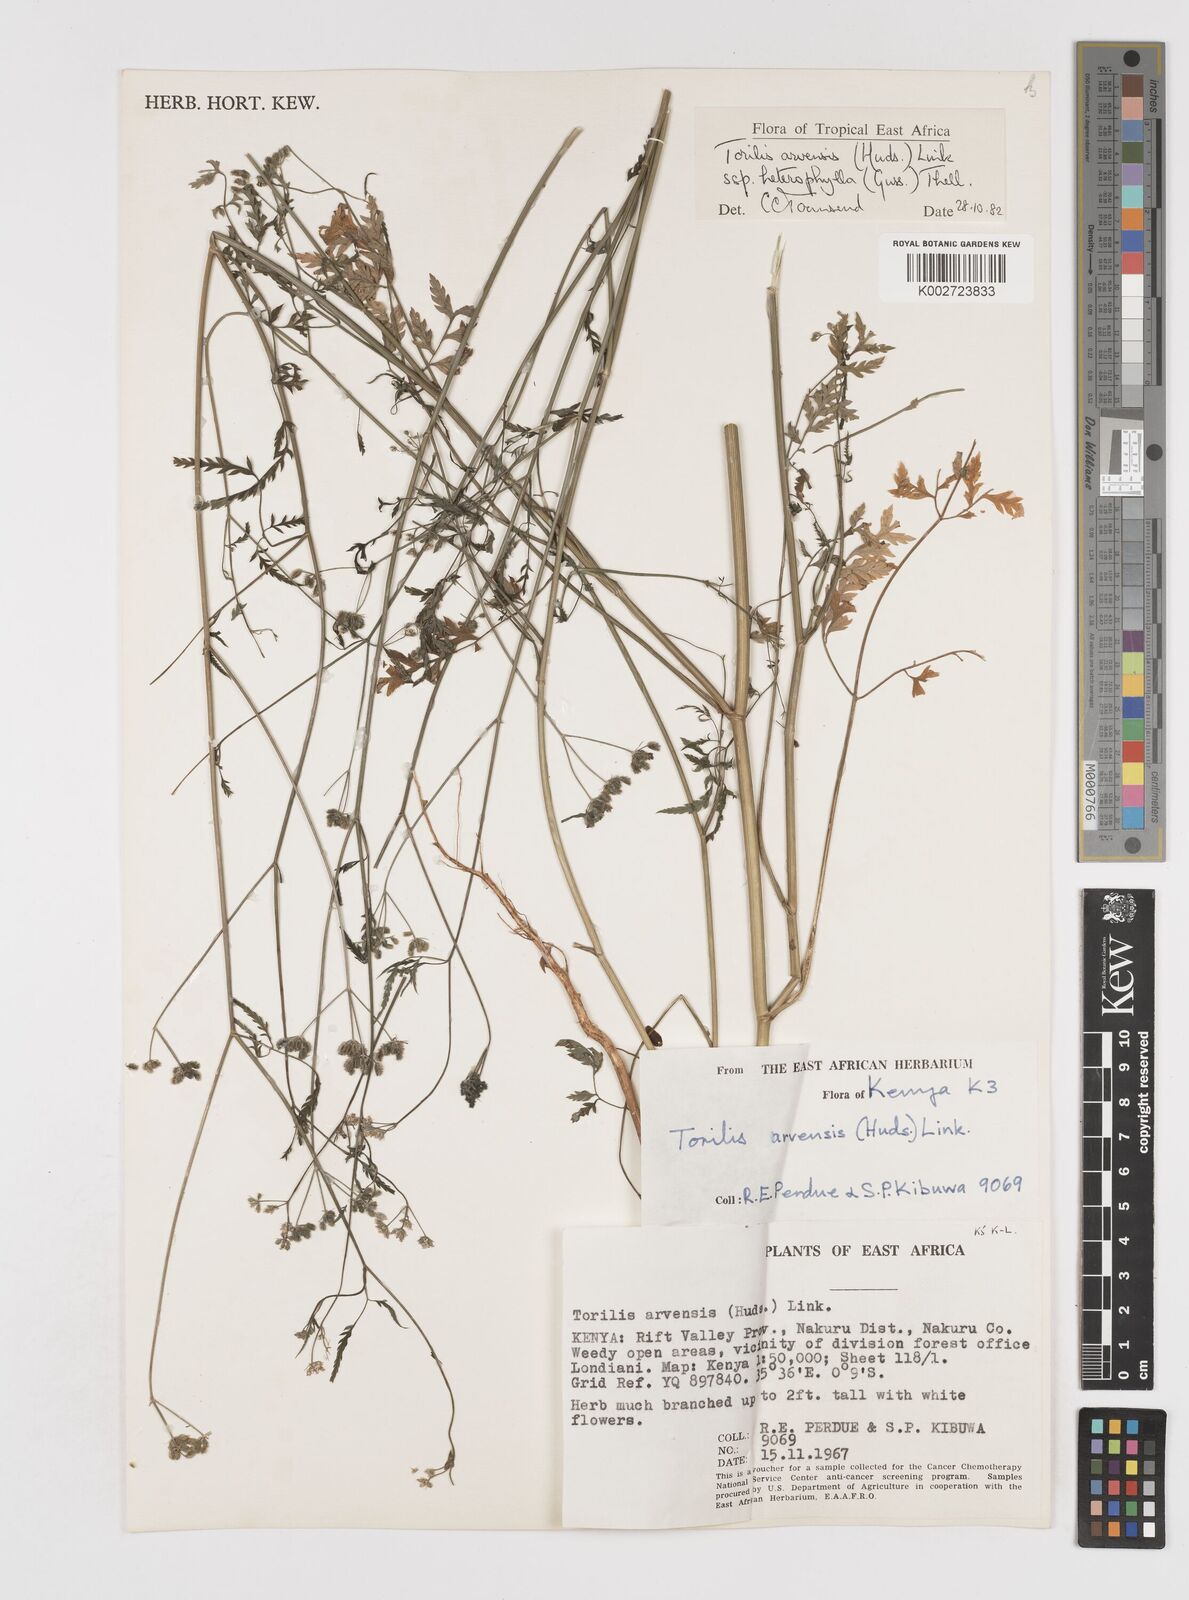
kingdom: Plantae
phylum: Tracheophyta
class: Magnoliopsida
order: Apiales
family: Apiaceae
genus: Torilis
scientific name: Torilis arvensis
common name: Spreading hedge-parsley
